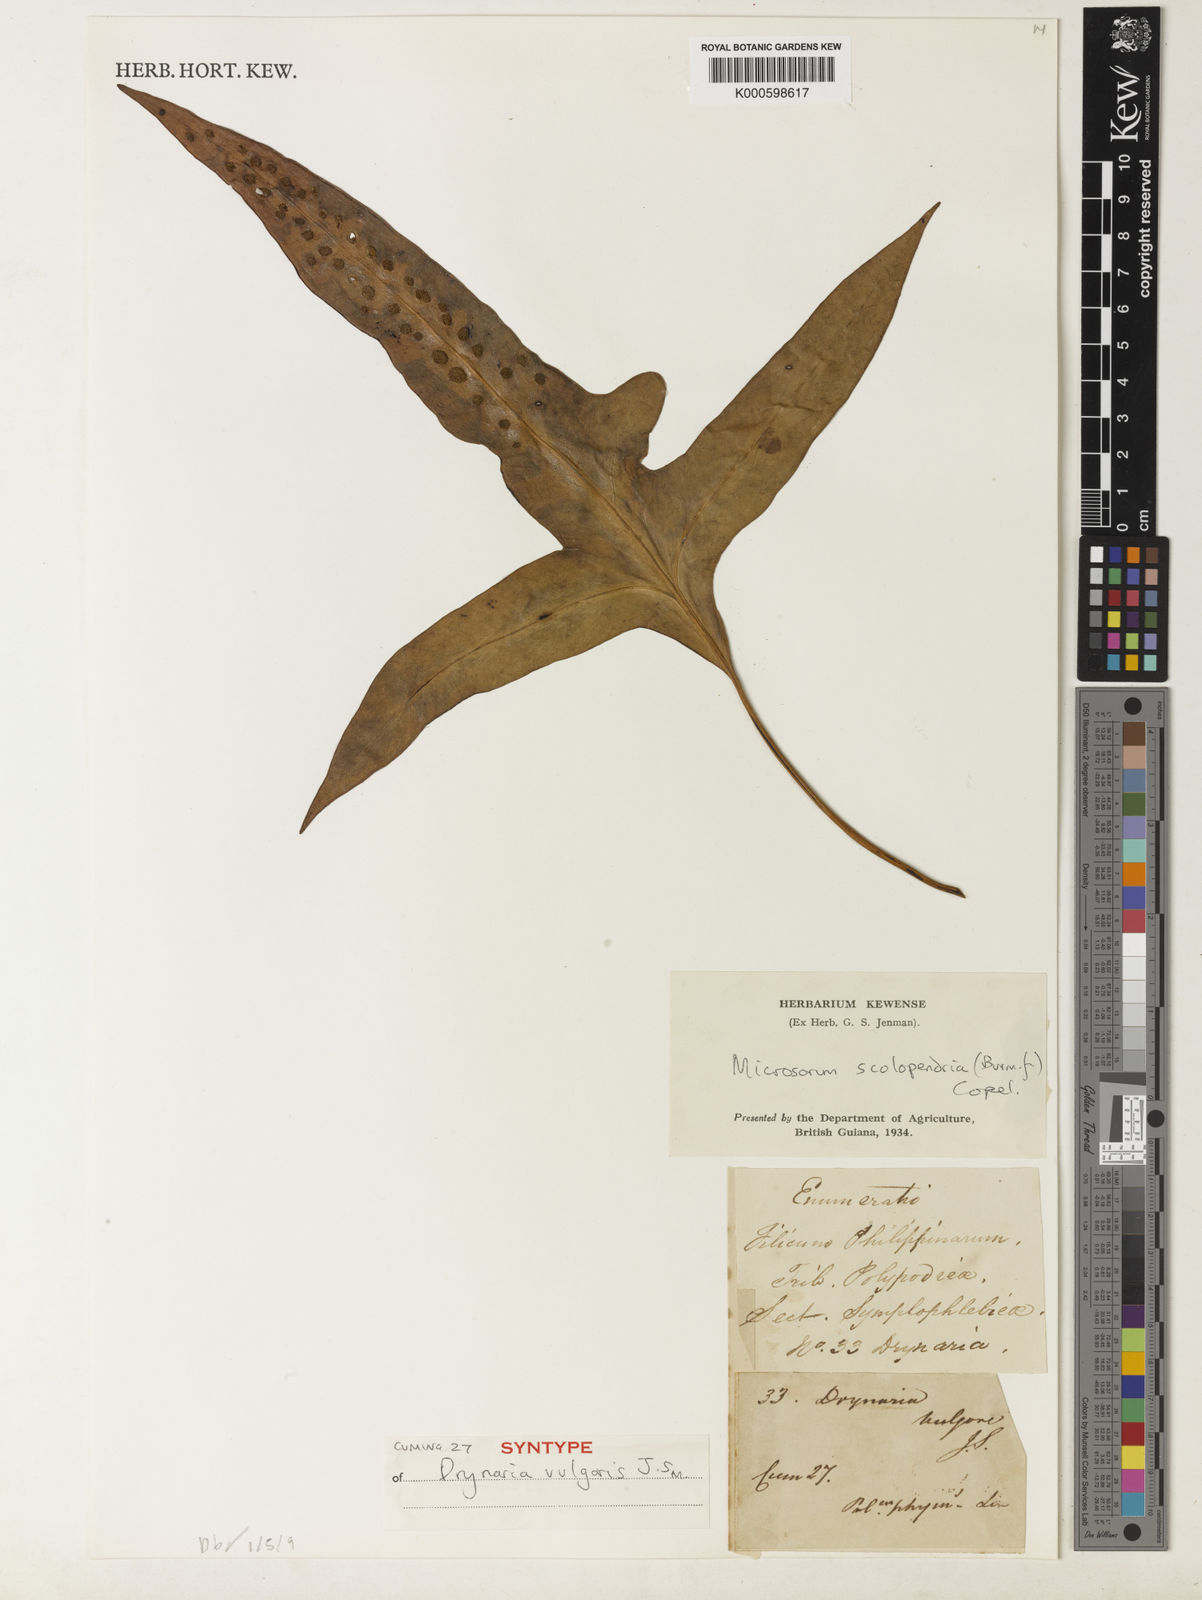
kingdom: Plantae
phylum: Tracheophyta
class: Polypodiopsida
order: Polypodiales
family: Polypodiaceae
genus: Microsorum
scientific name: Microsorum scolopendria
